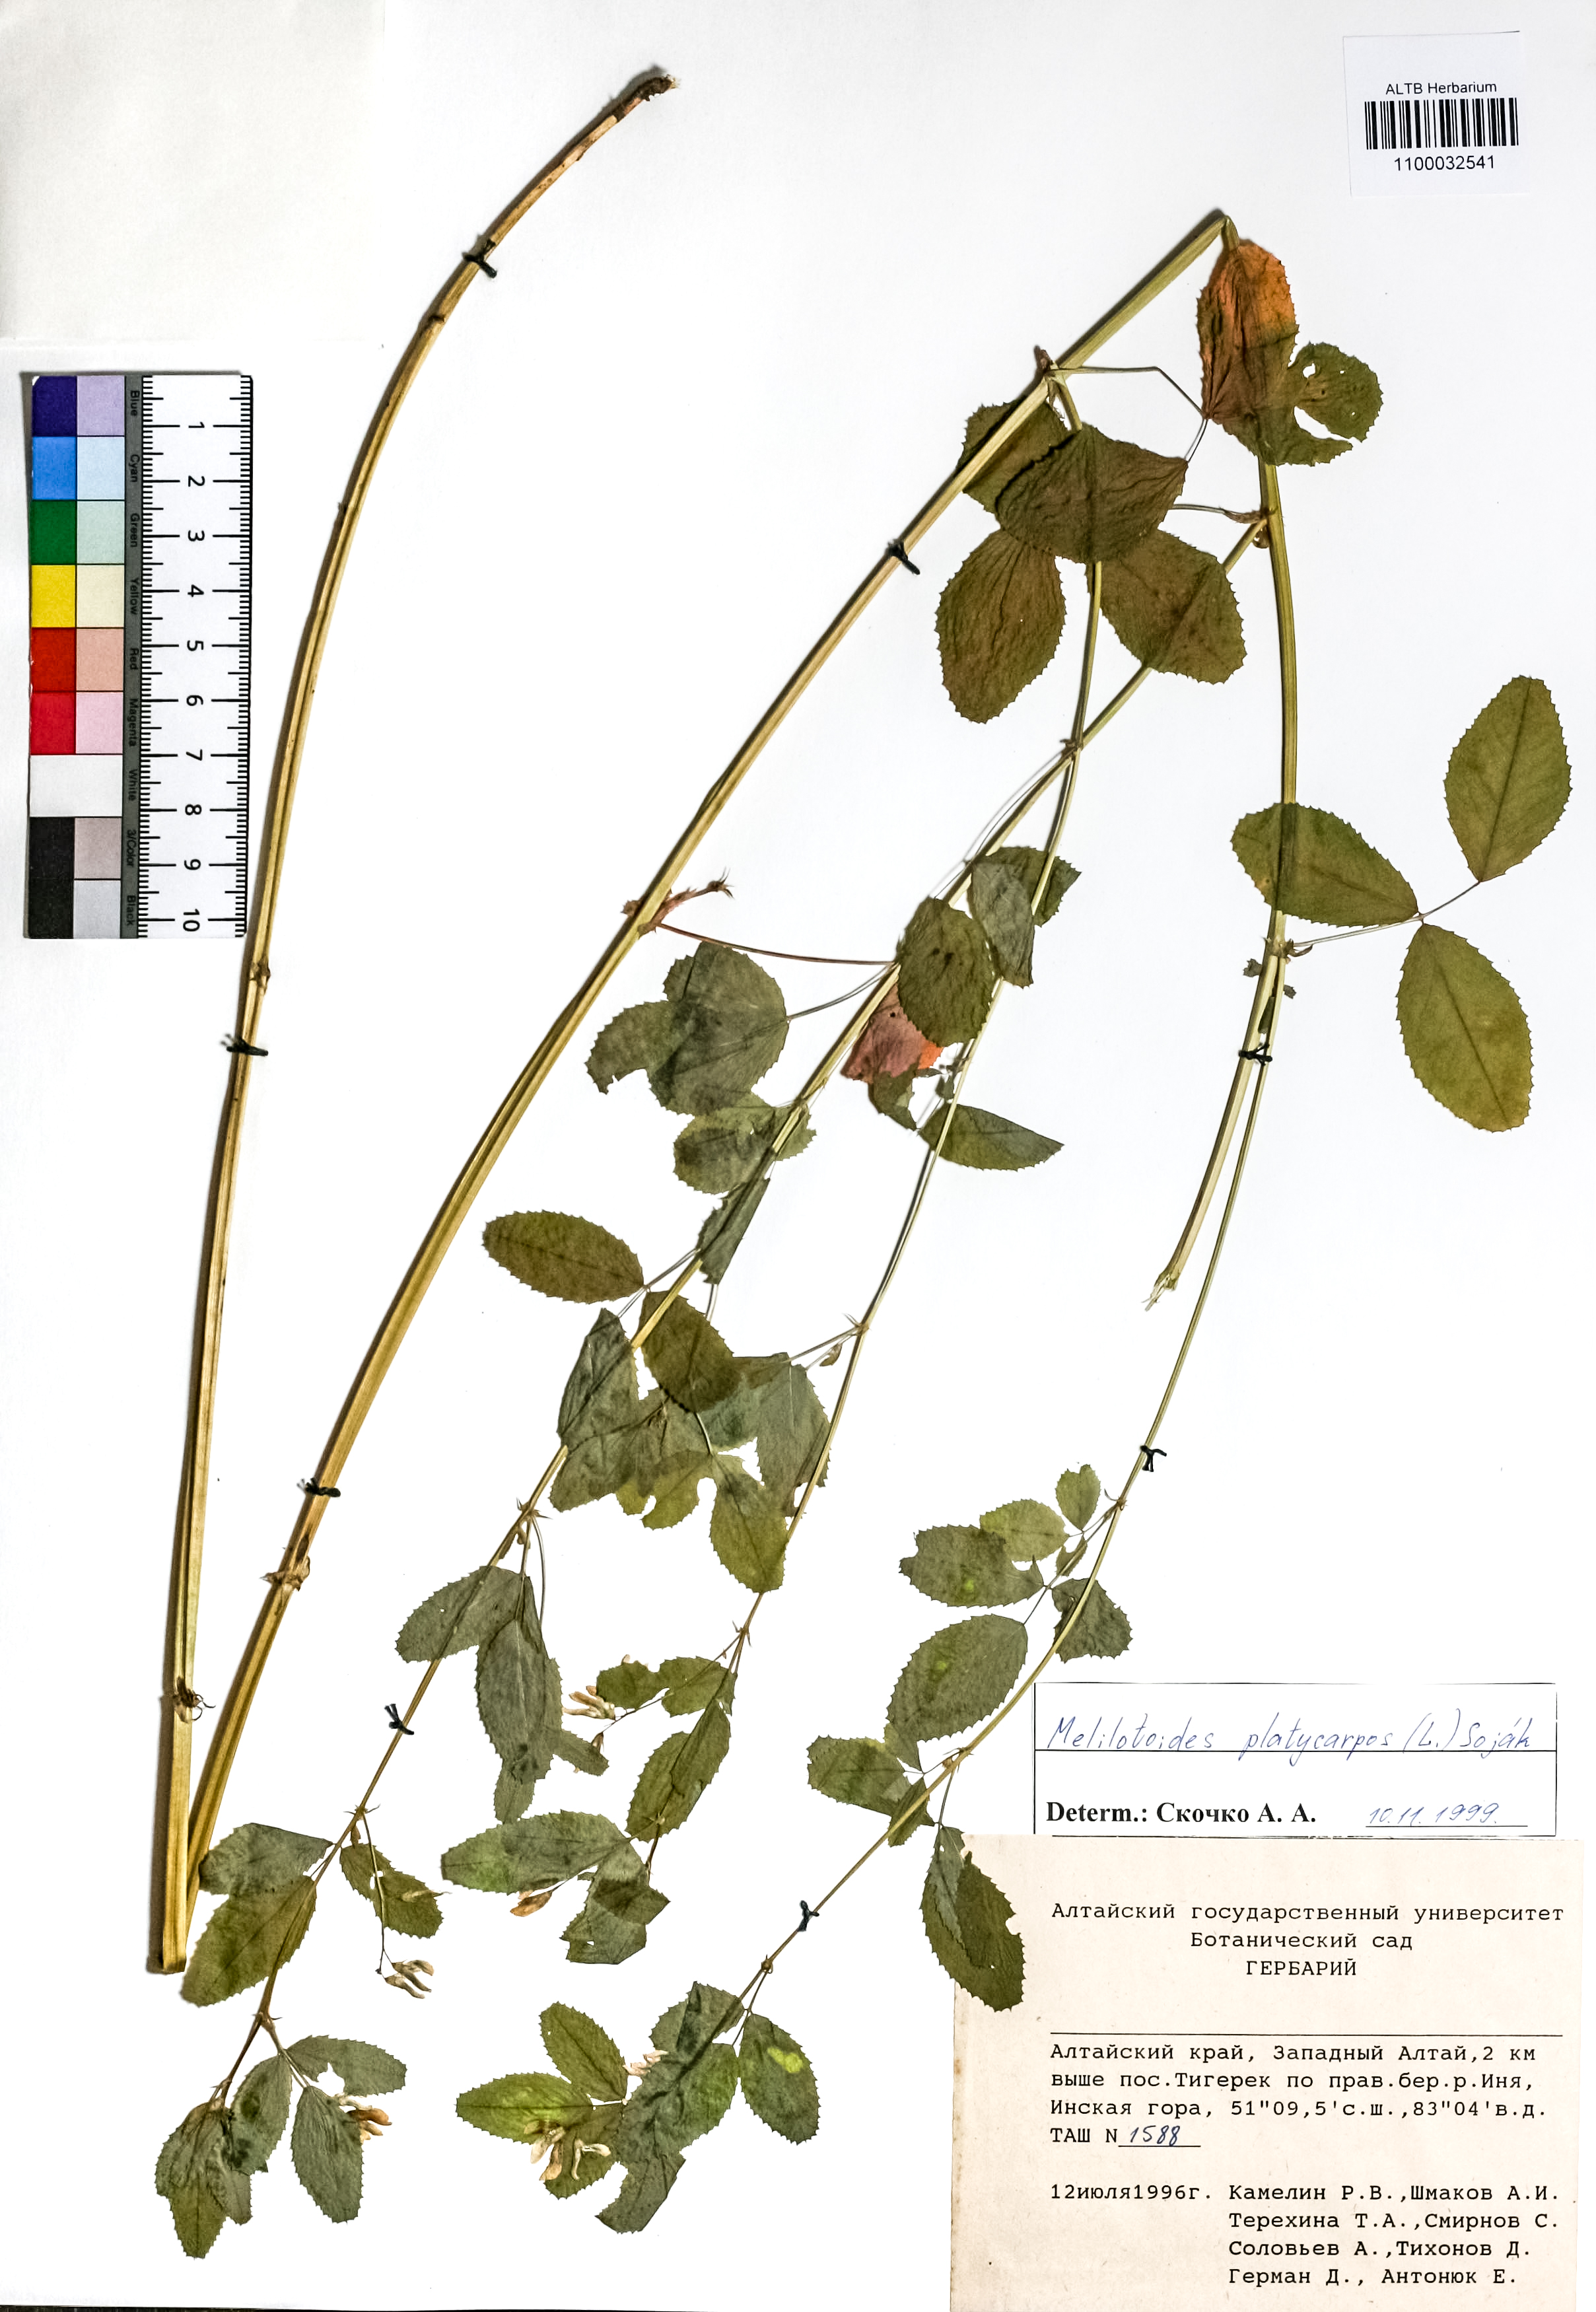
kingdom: Plantae
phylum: Tracheophyta
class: Magnoliopsida
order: Fabales
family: Fabaceae
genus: Medicago
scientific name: Medicago platycarpos
